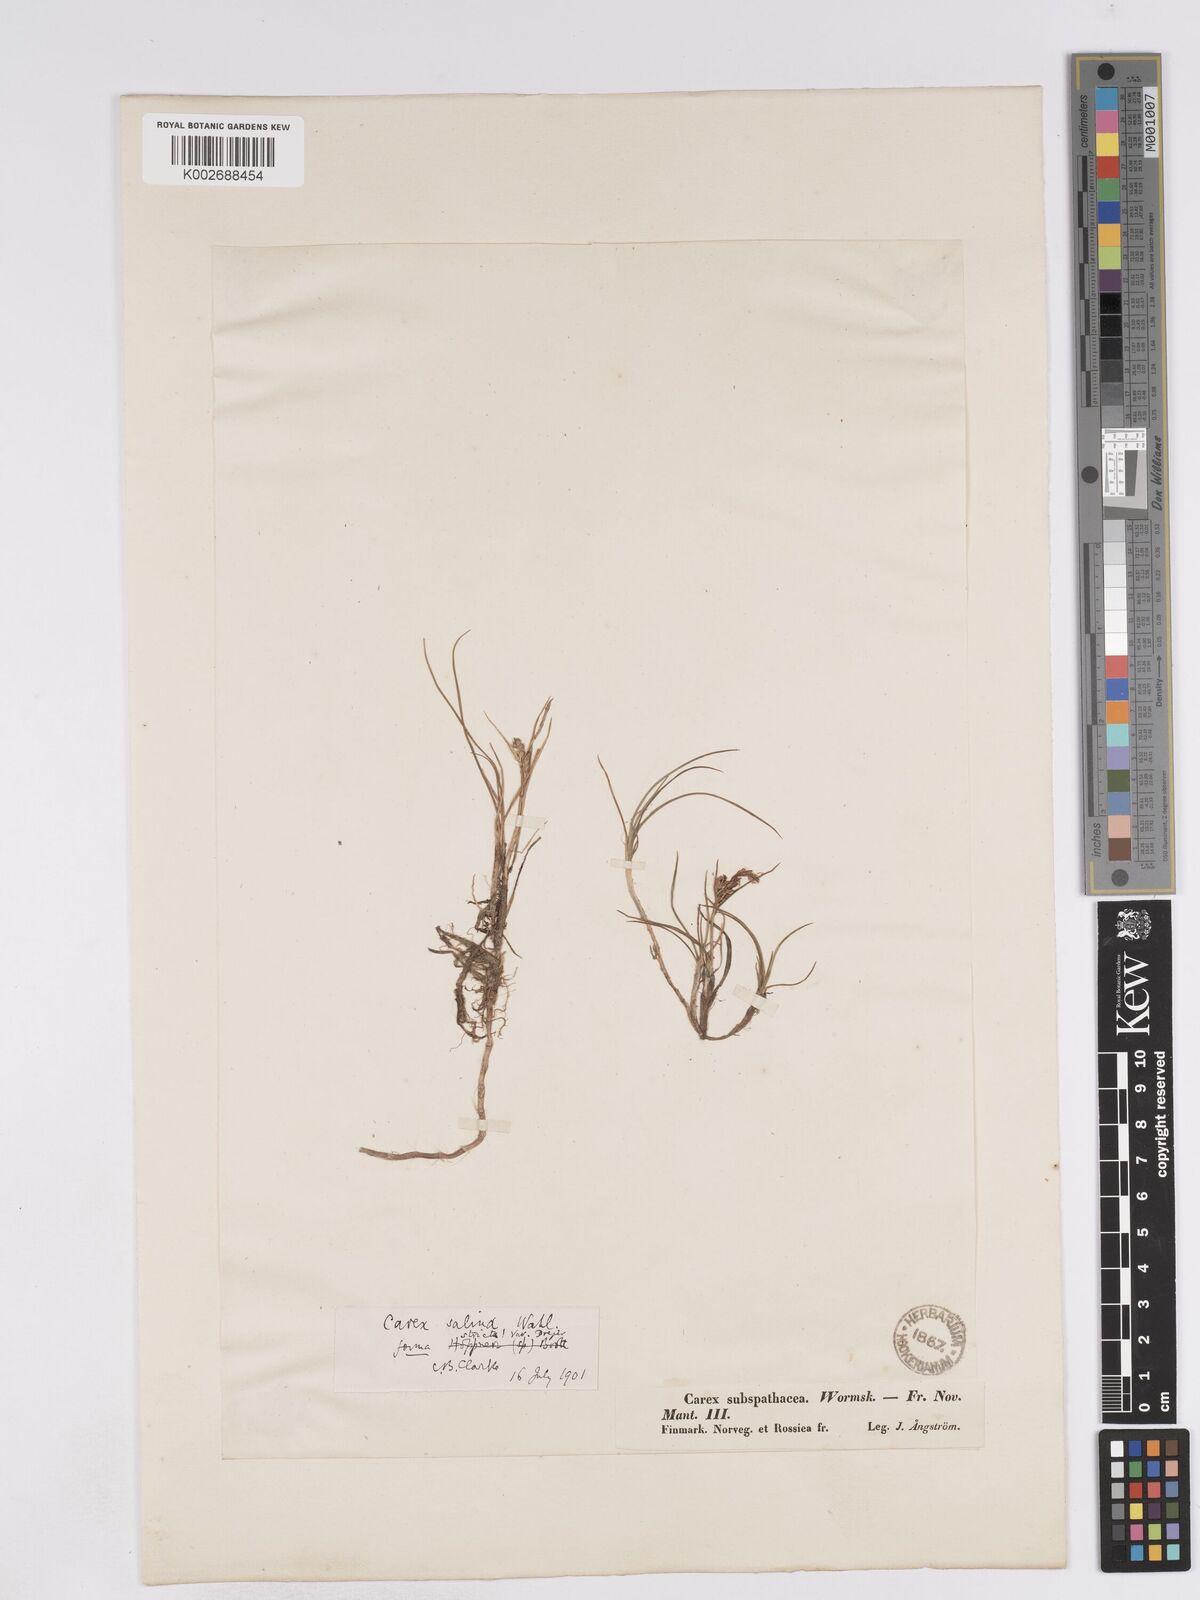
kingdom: Plantae
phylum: Tracheophyta
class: Liliopsida
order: Poales
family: Cyperaceae
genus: Carex
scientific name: Carex subspathacea
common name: Hoppner's sedge
